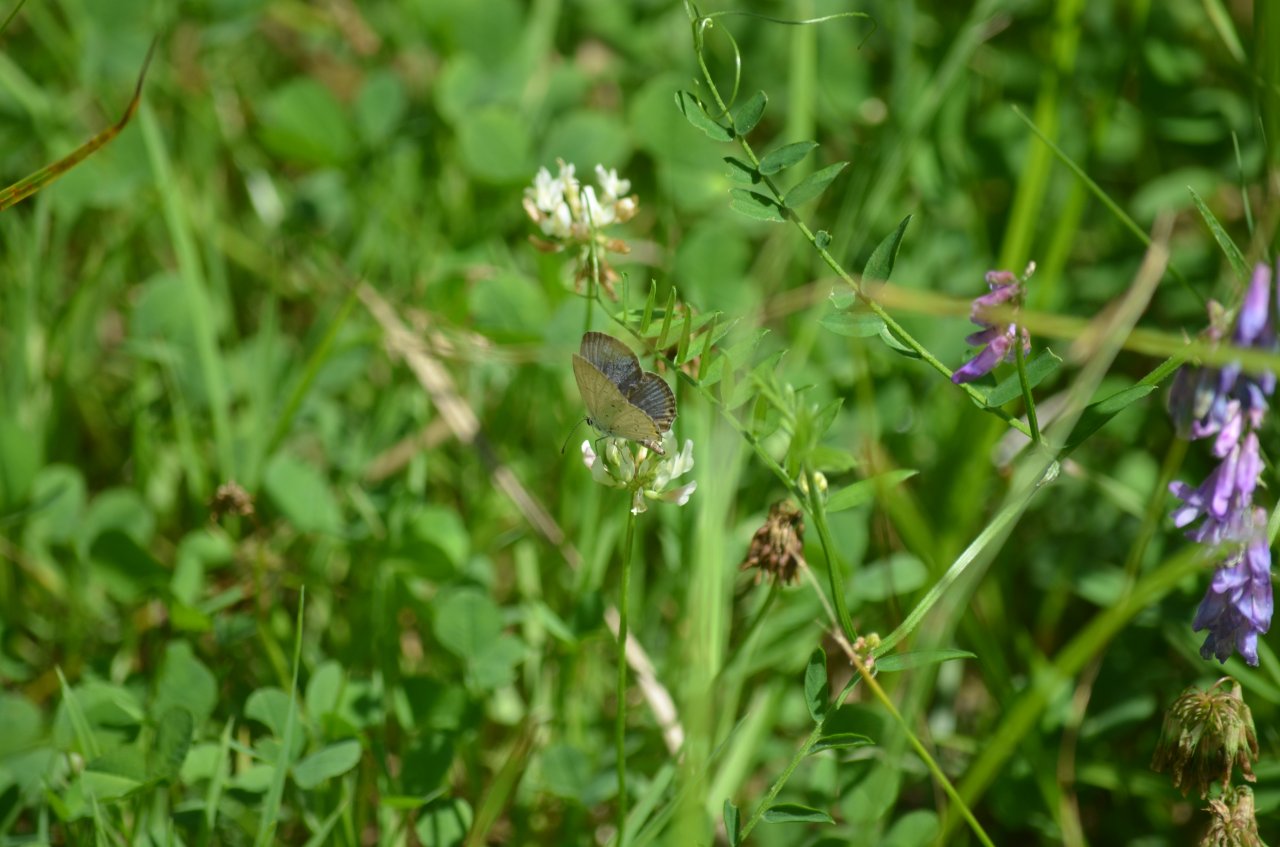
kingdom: Animalia
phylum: Arthropoda
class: Insecta
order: Lepidoptera
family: Lycaenidae
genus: Elkalyce
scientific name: Elkalyce comyntas
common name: Eastern Tailed-Blue
